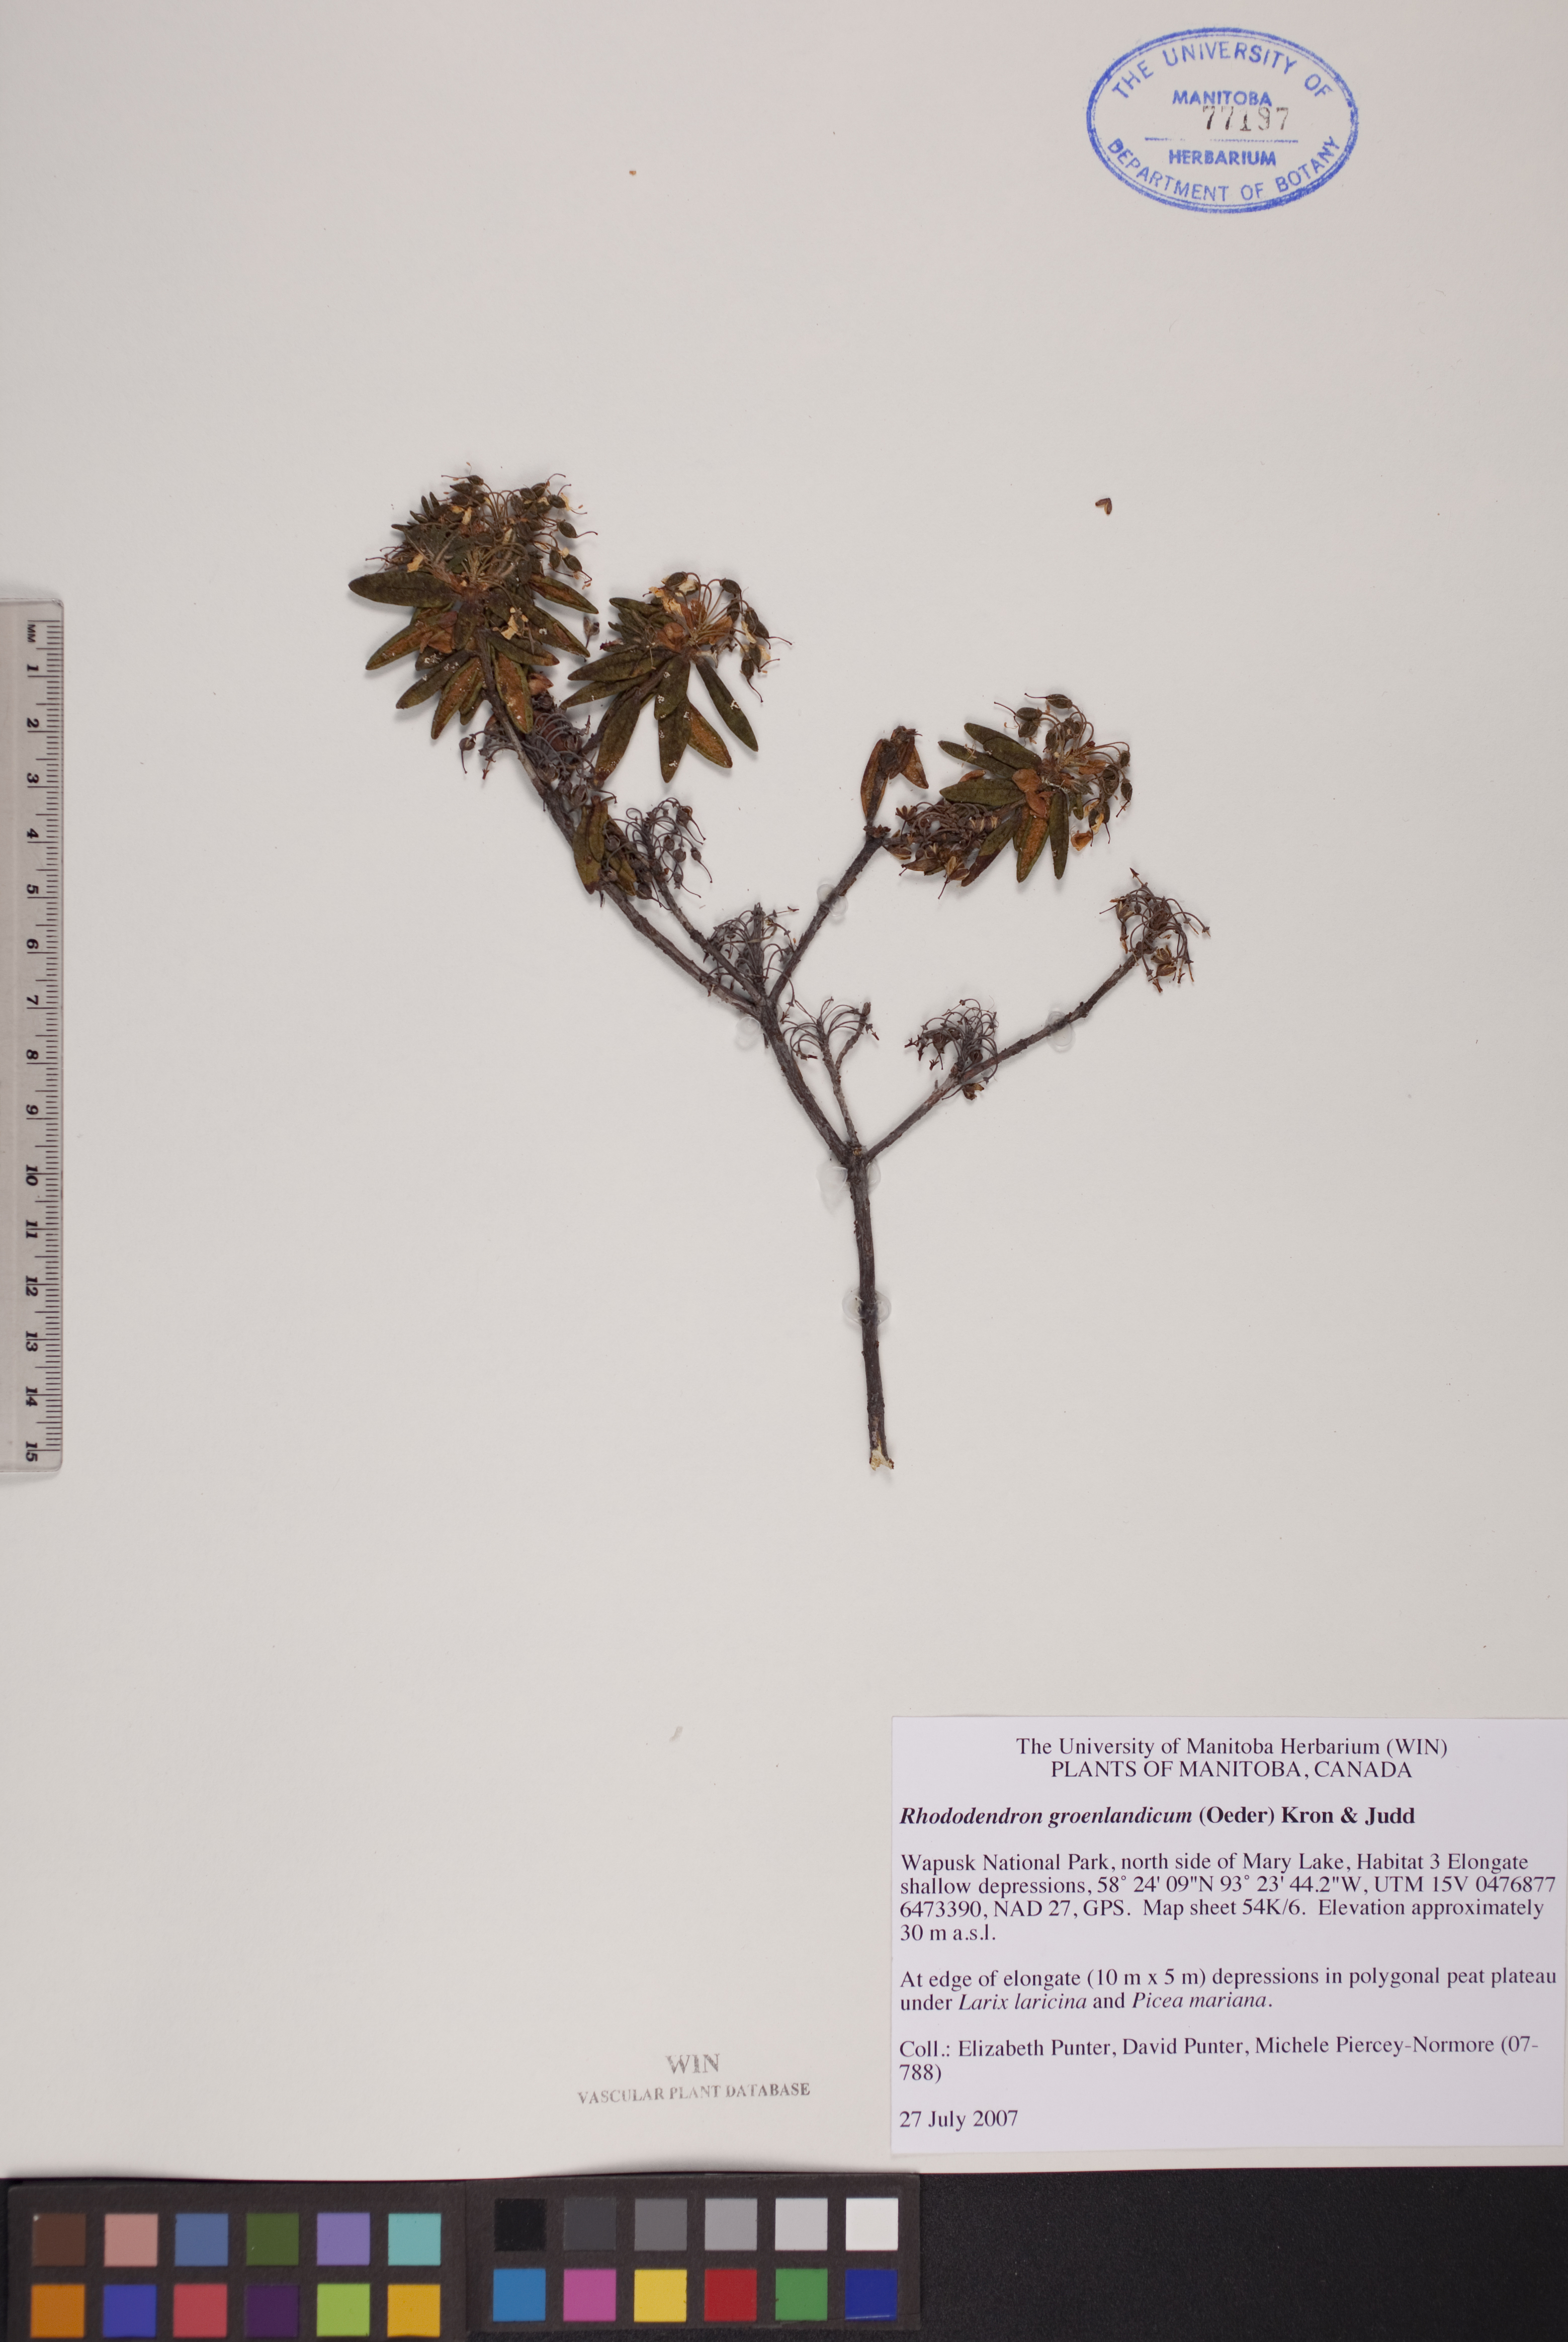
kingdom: Plantae
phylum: Tracheophyta
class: Magnoliopsida
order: Ericales
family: Ericaceae
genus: Rhododendron
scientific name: Rhododendron groenlandicum
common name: Bog labrador tea
